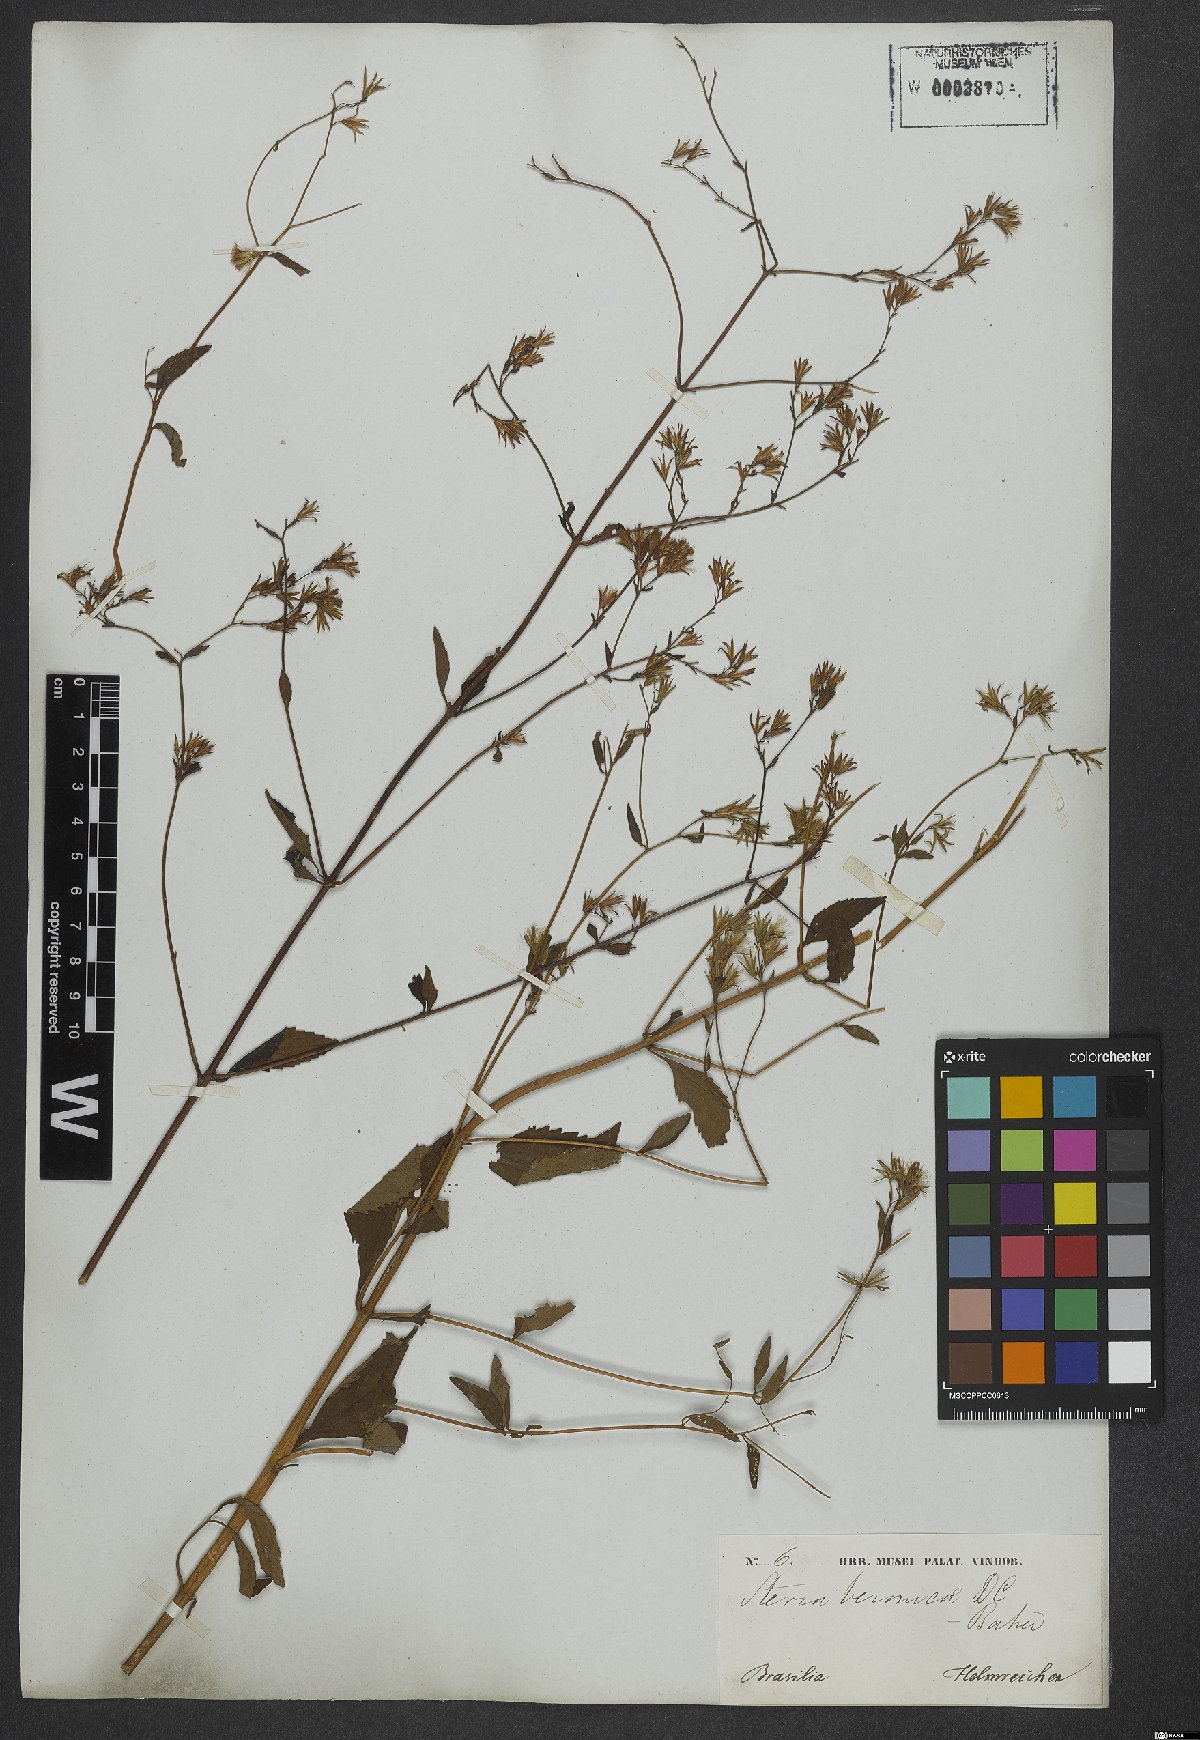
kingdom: Plantae
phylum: Tracheophyta
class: Magnoliopsida
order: Asterales
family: Asteraceae
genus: Stevia
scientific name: Stevia veronicae
